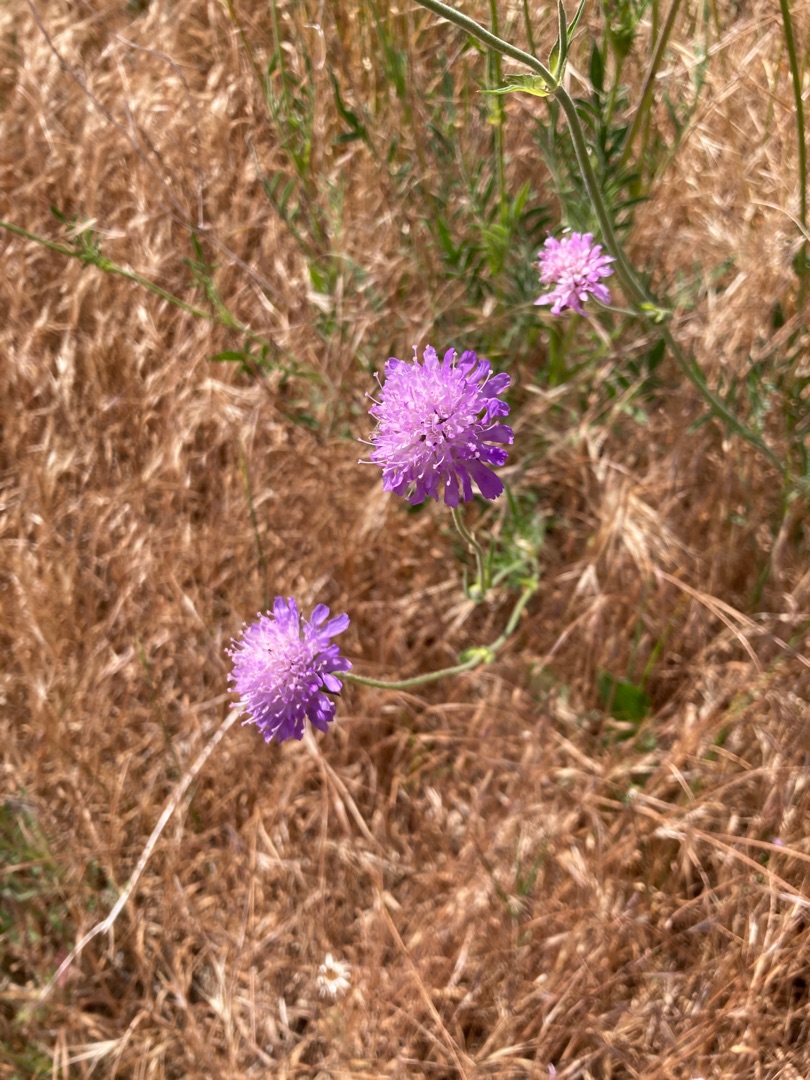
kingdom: Plantae
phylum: Tracheophyta
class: Magnoliopsida
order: Dipsacales
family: Caprifoliaceae
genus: Knautia
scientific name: Knautia arvensis
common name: Blåhat
